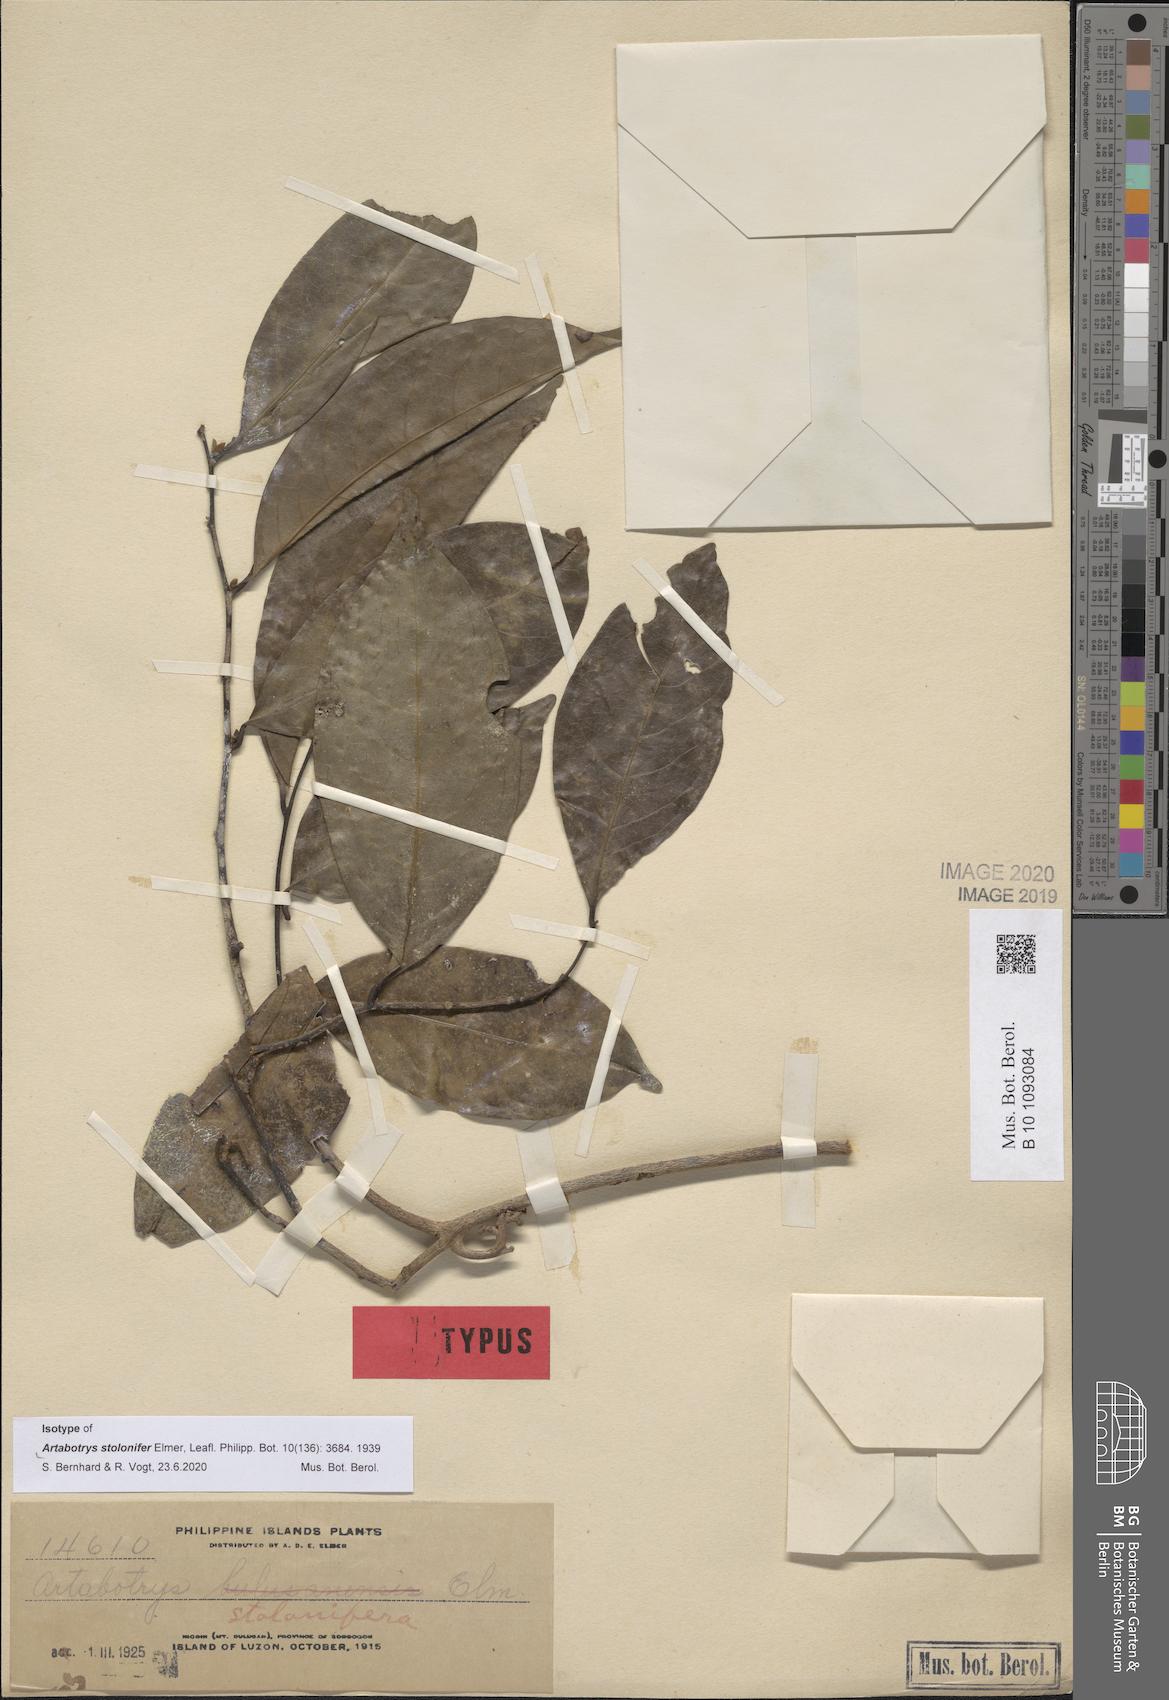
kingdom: Plantae
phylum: Tracheophyta
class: Magnoliopsida
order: Magnoliales
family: Annonaceae
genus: Artabotrys
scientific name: Artabotrys stolonifer
